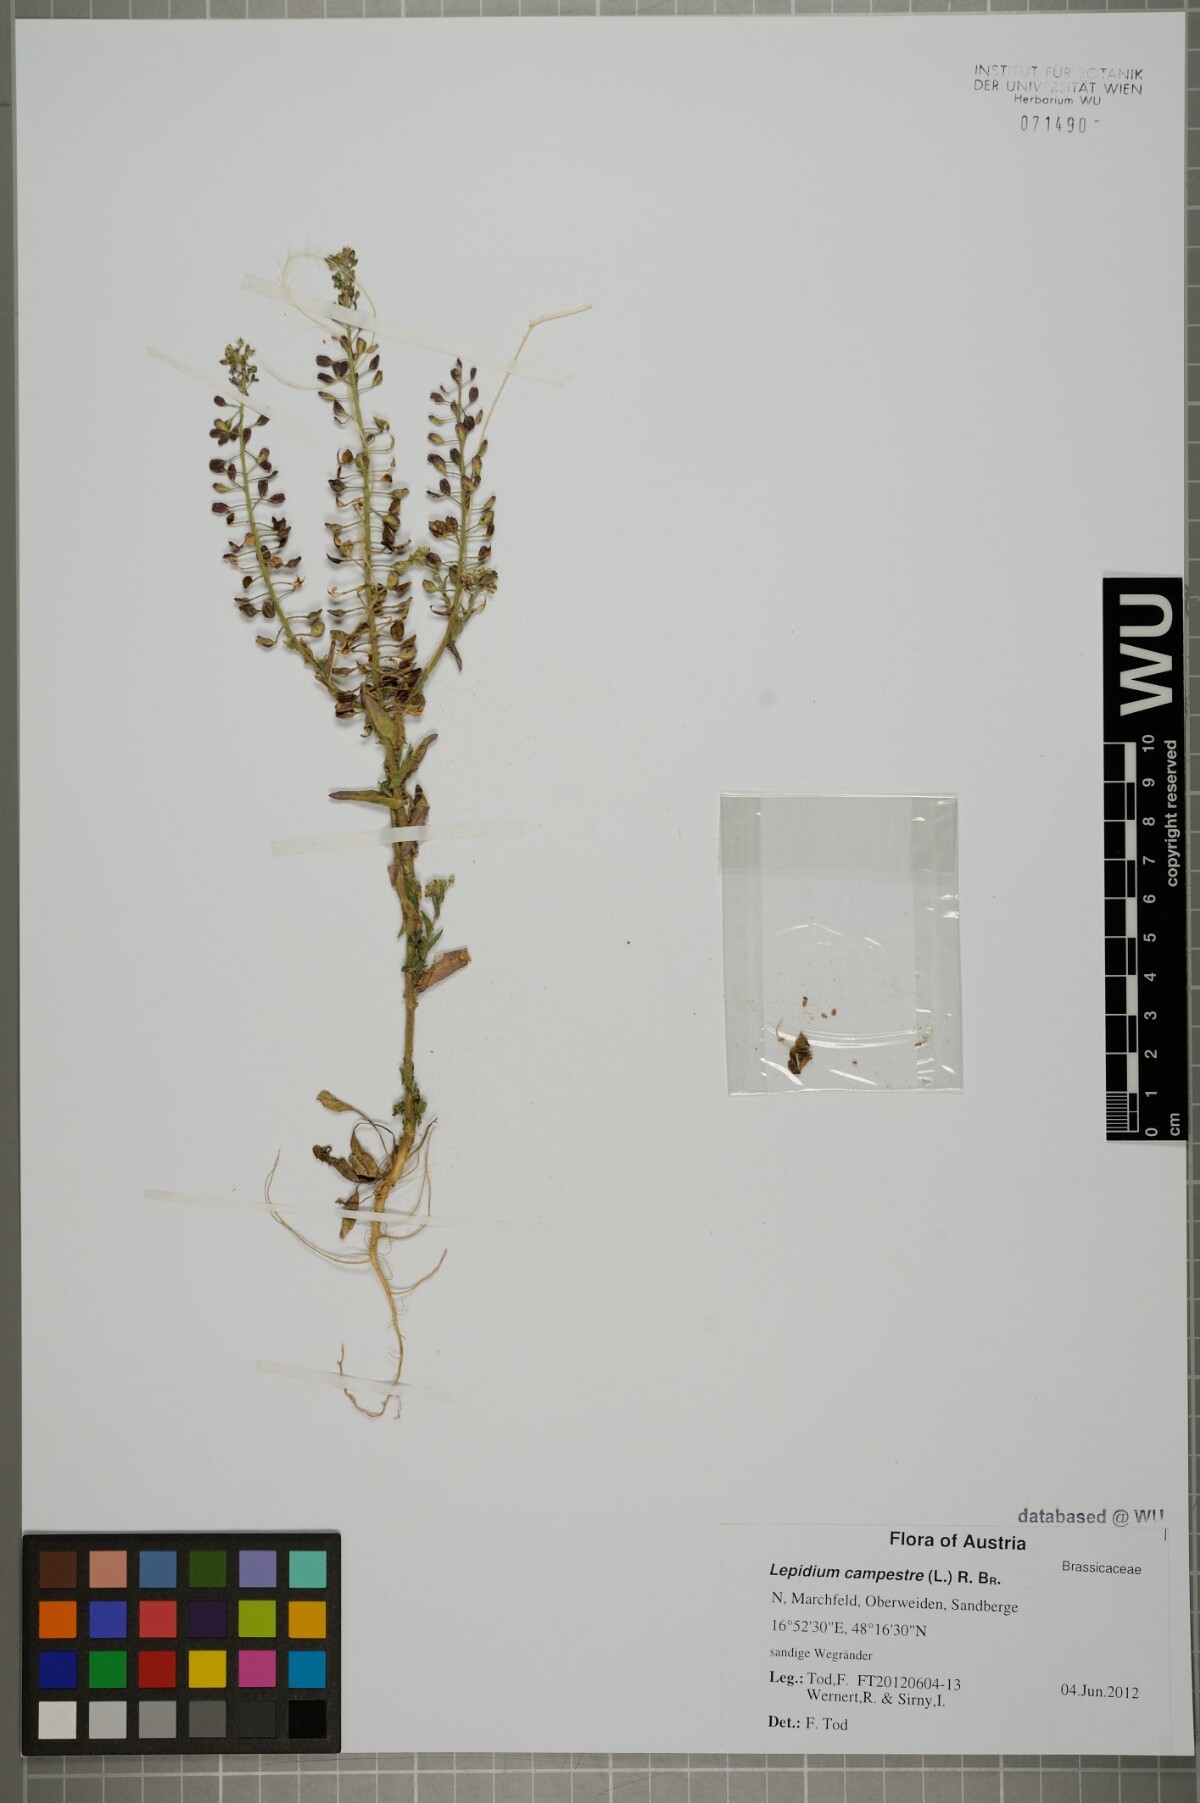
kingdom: Plantae
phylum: Tracheophyta
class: Magnoliopsida
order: Brassicales
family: Brassicaceae
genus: Lepidium
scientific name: Lepidium campestre
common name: Field pepperwort
